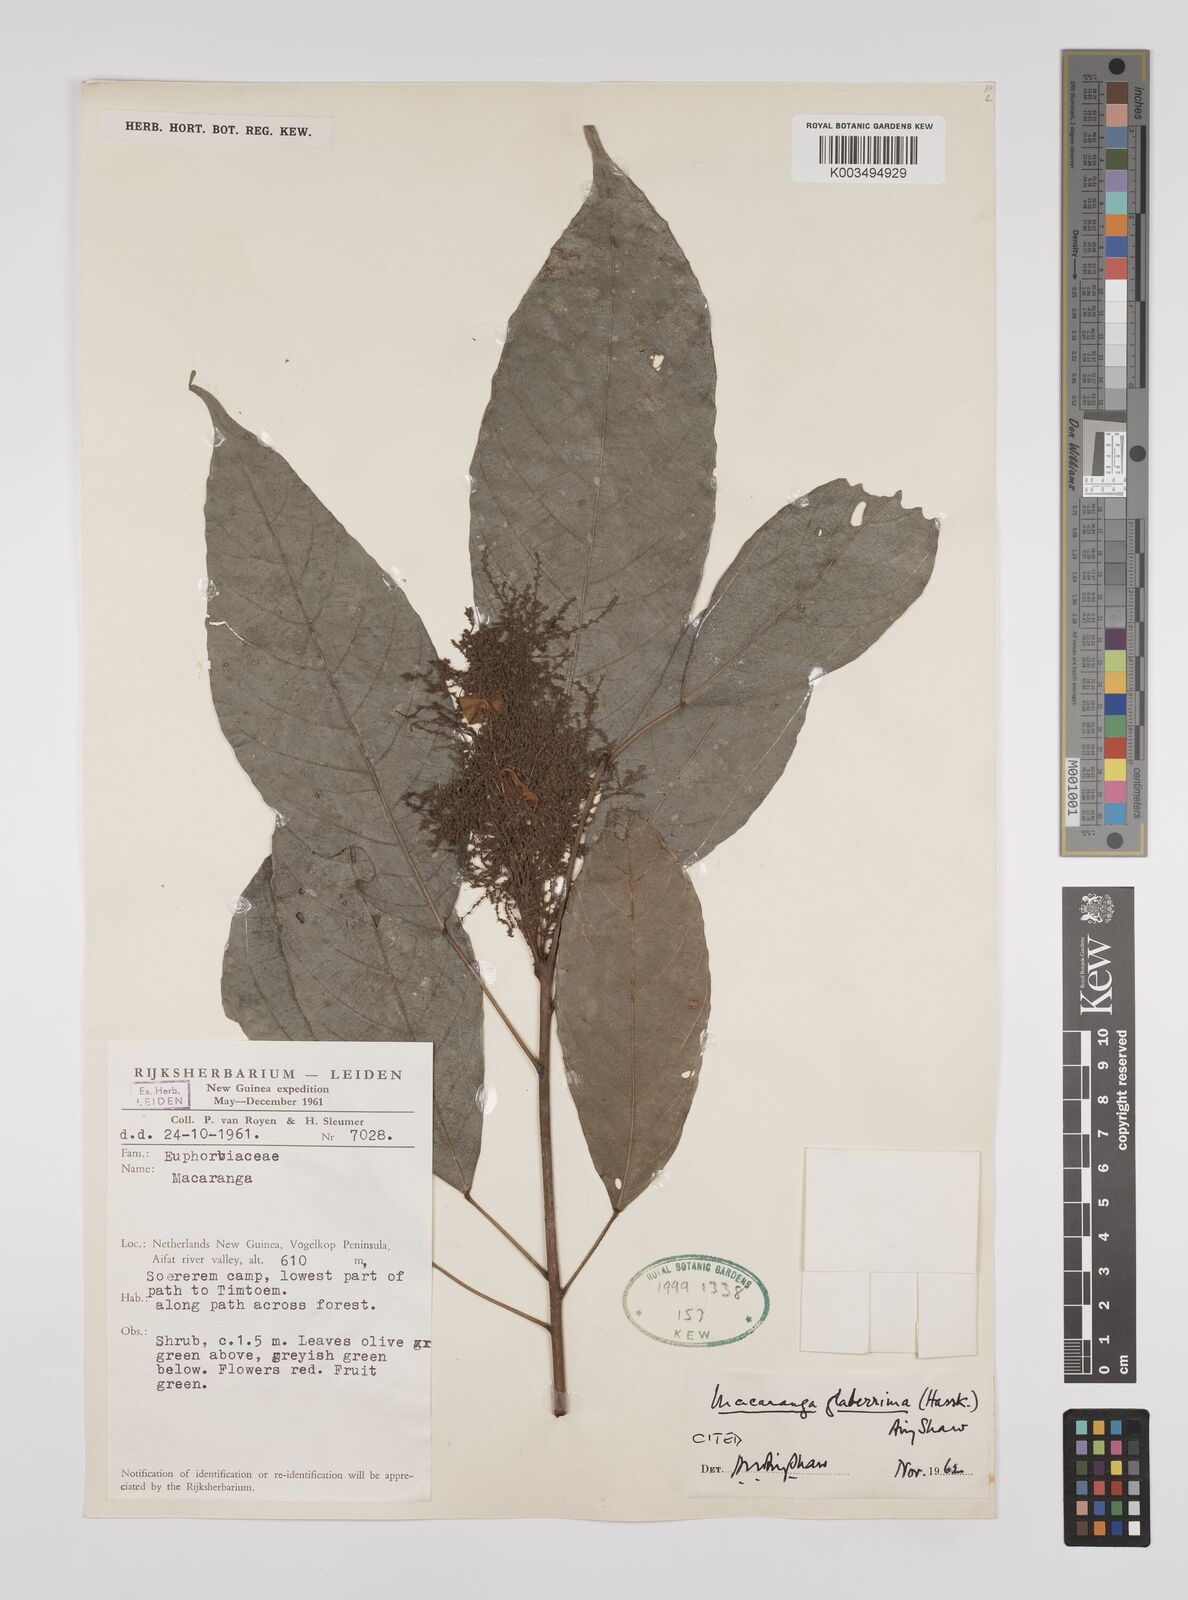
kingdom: Plantae
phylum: Tracheophyta
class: Magnoliopsida
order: Malpighiales
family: Euphorbiaceae
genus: Macaranga
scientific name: Macaranga glaberrima
